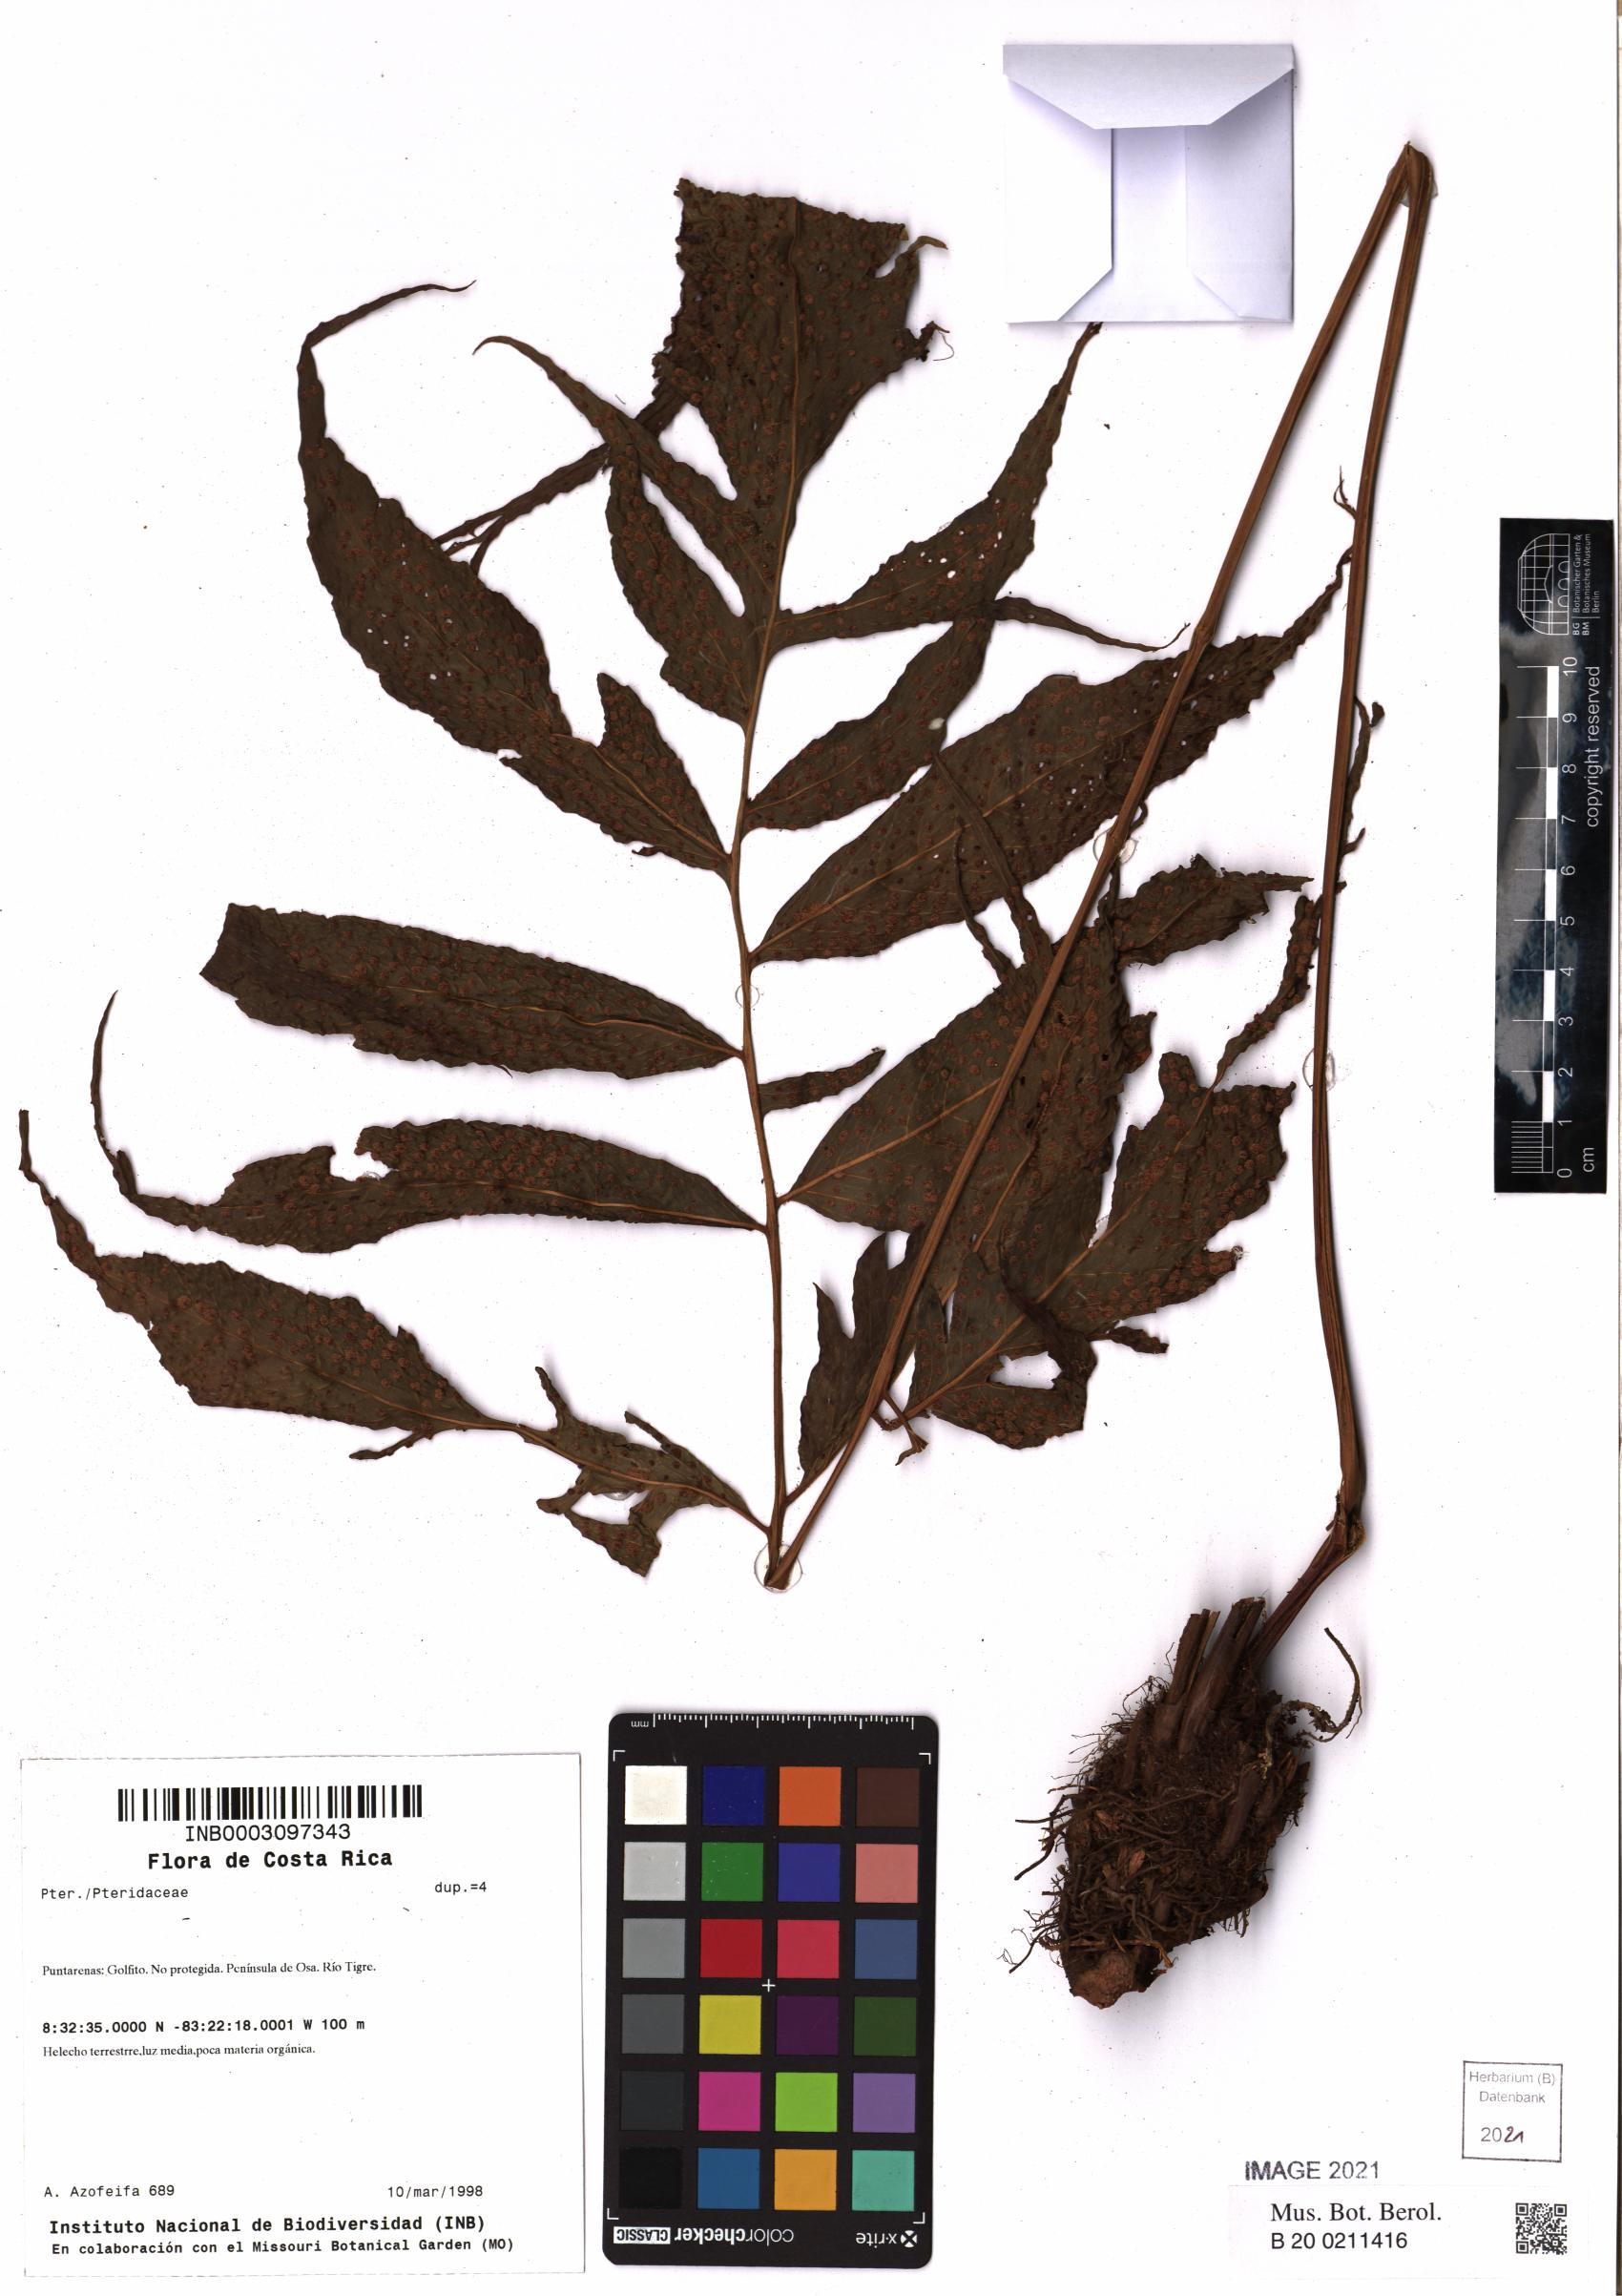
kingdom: Plantae
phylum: Tracheophyta
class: Polypodiopsida
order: Polypodiales
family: Tectariaceae
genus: Tectaria
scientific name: Tectaria incisa
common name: Incised halberd fern
